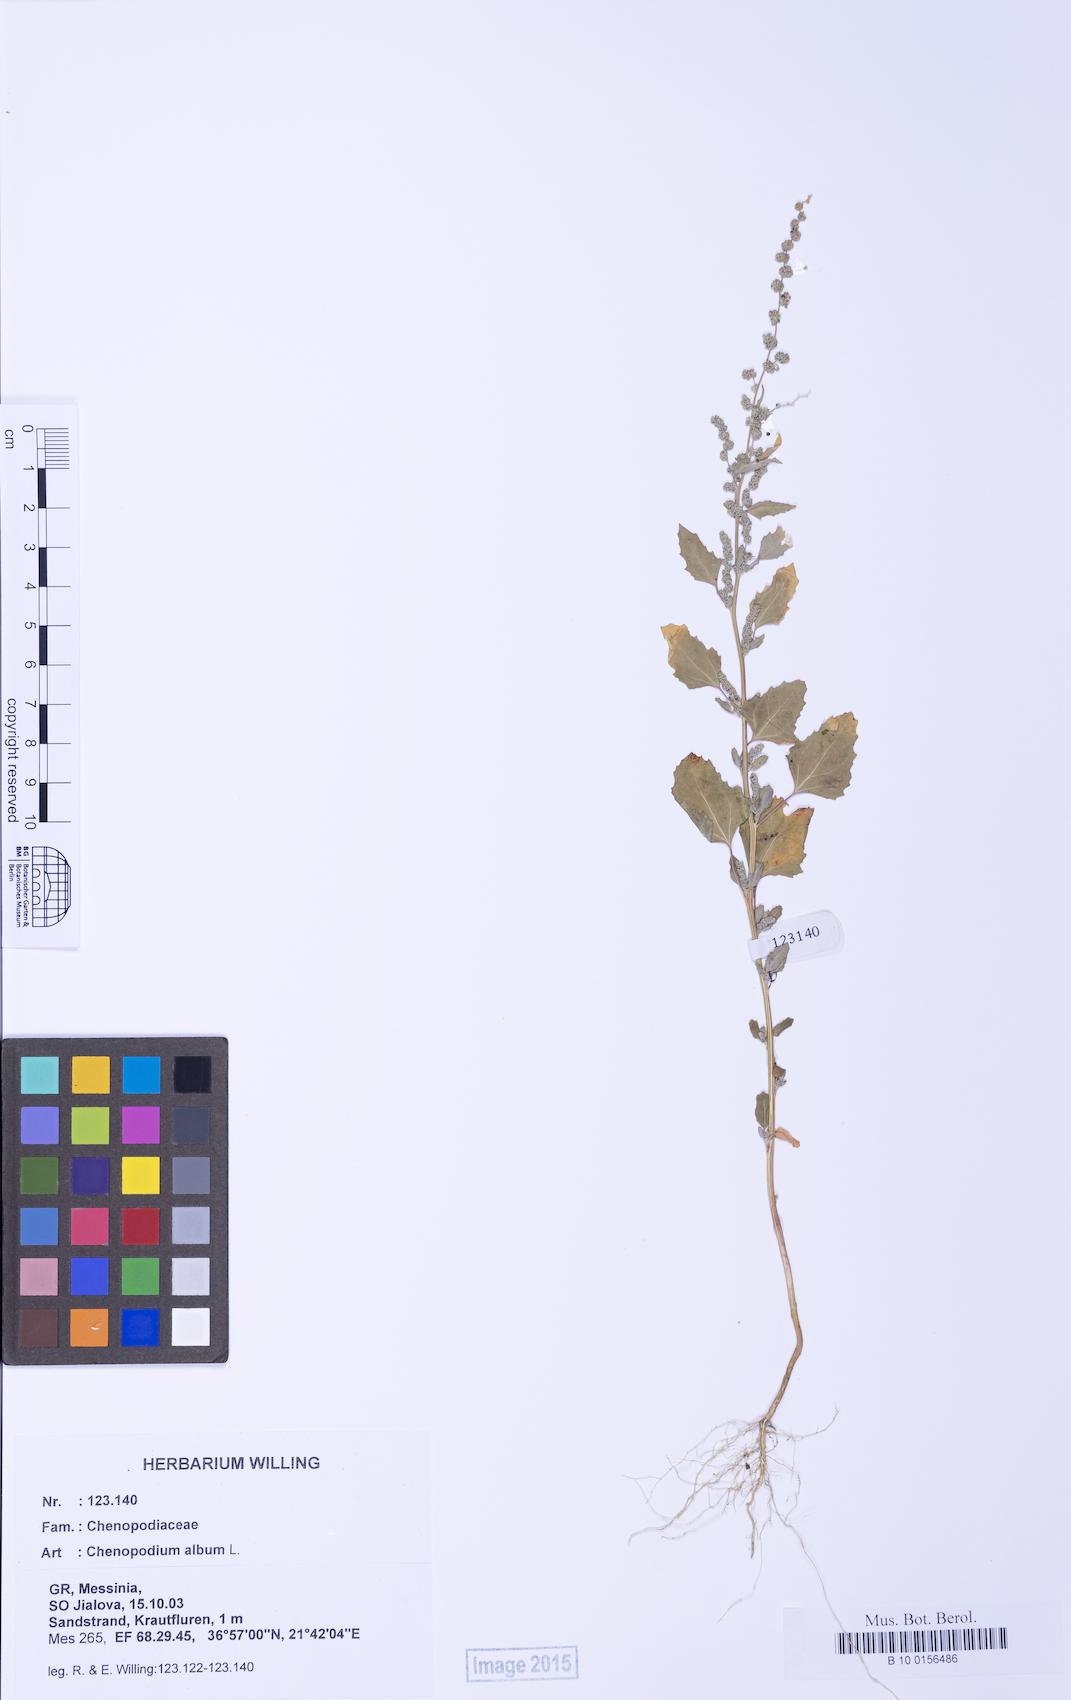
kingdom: Plantae
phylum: Tracheophyta
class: Magnoliopsida
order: Caryophyllales
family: Amaranthaceae
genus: Chenopodium
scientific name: Chenopodium album
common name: Fat-hen
